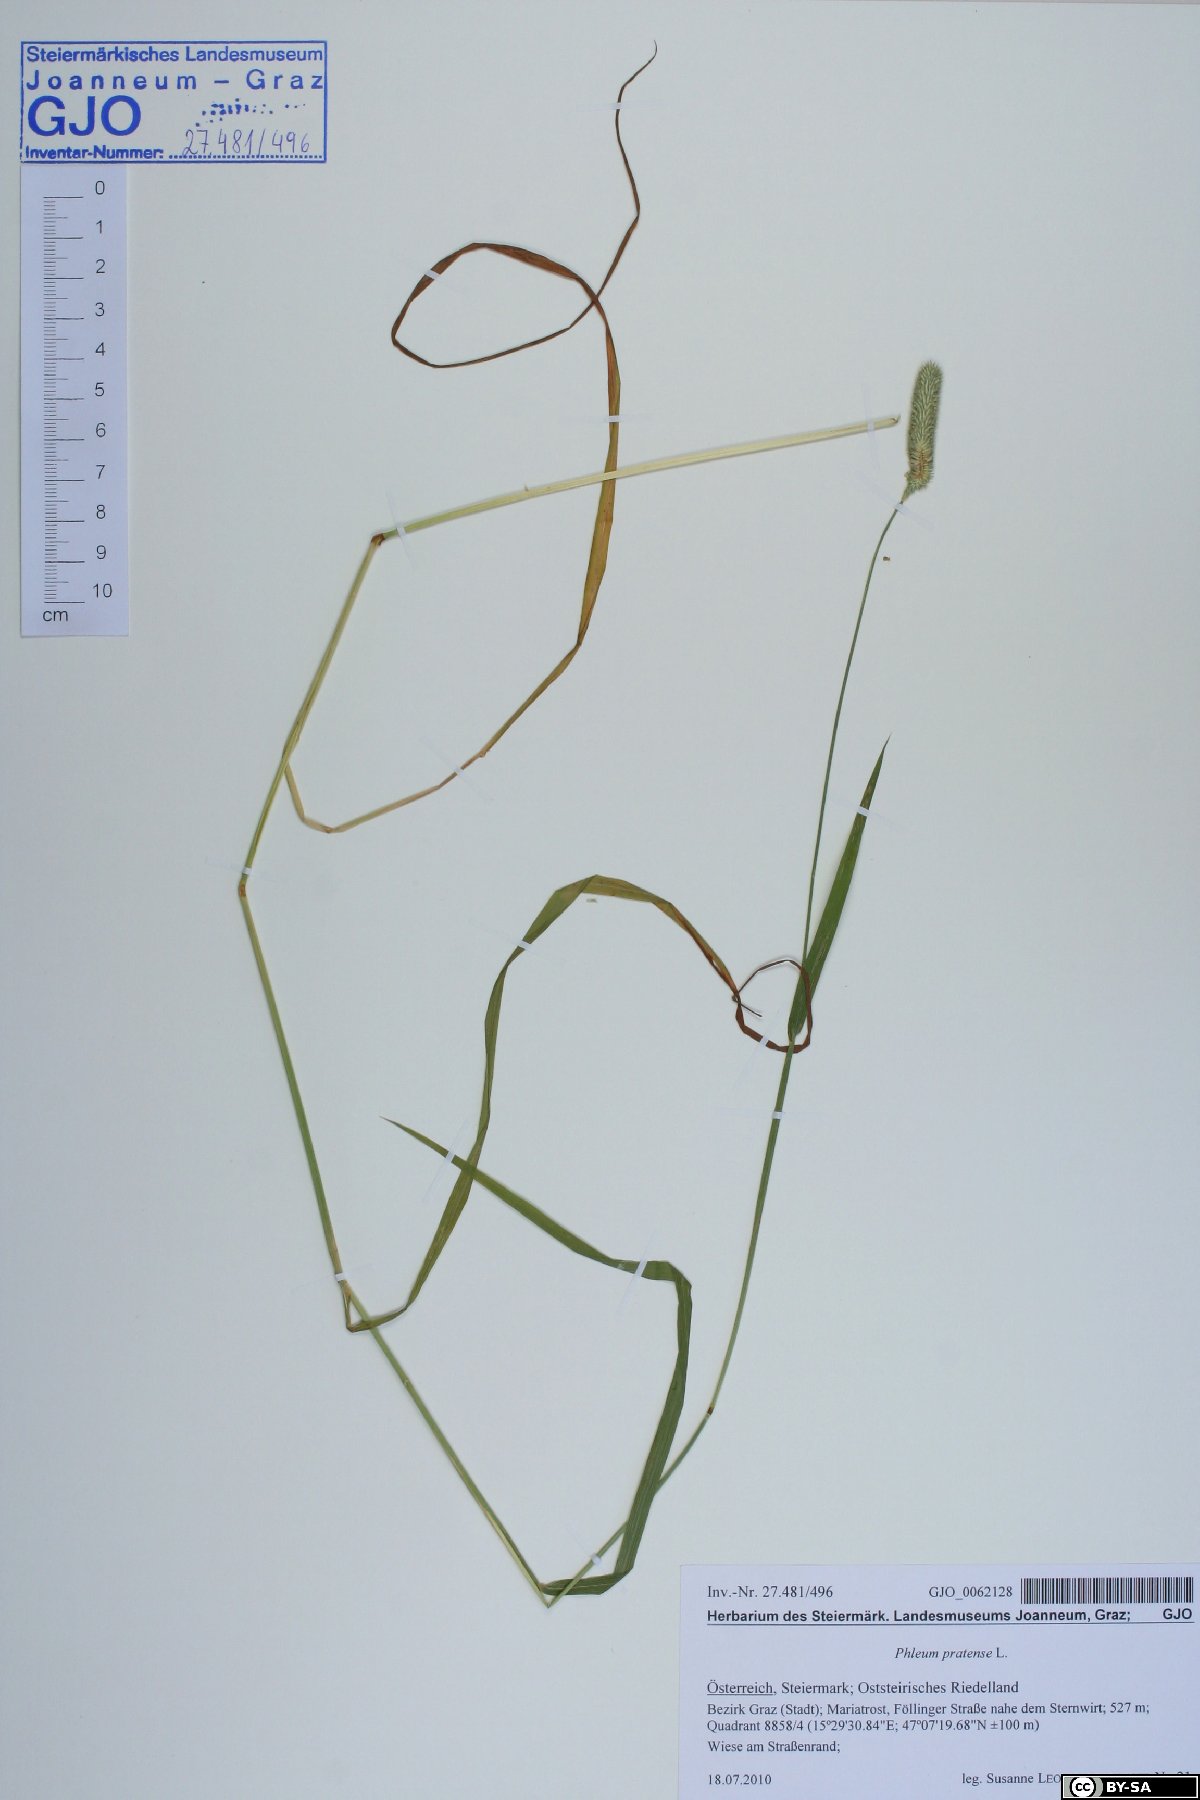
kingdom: Plantae
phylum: Tracheophyta
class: Liliopsida
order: Poales
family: Poaceae
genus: Phleum
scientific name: Phleum pratense
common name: Timothy grass
